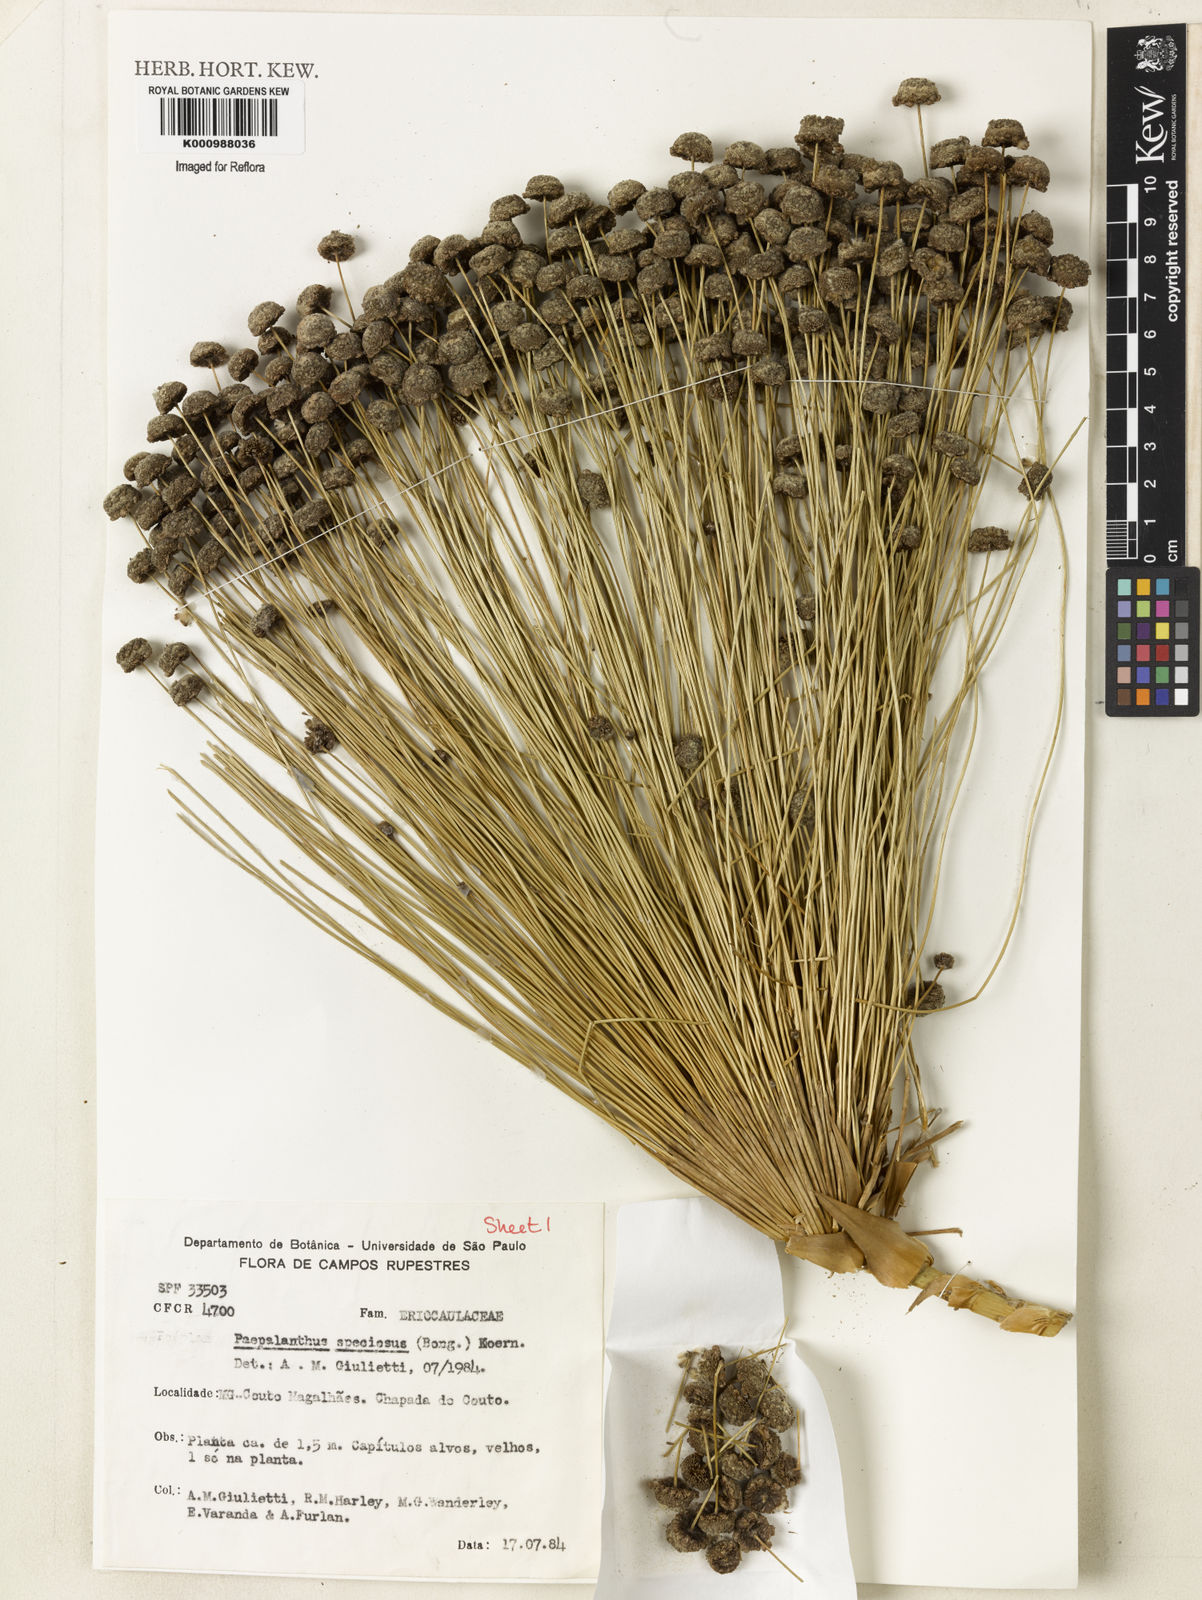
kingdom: Plantae
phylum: Tracheophyta
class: Liliopsida
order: Poales
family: Eriocaulaceae
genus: Paepalanthus
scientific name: Paepalanthus
